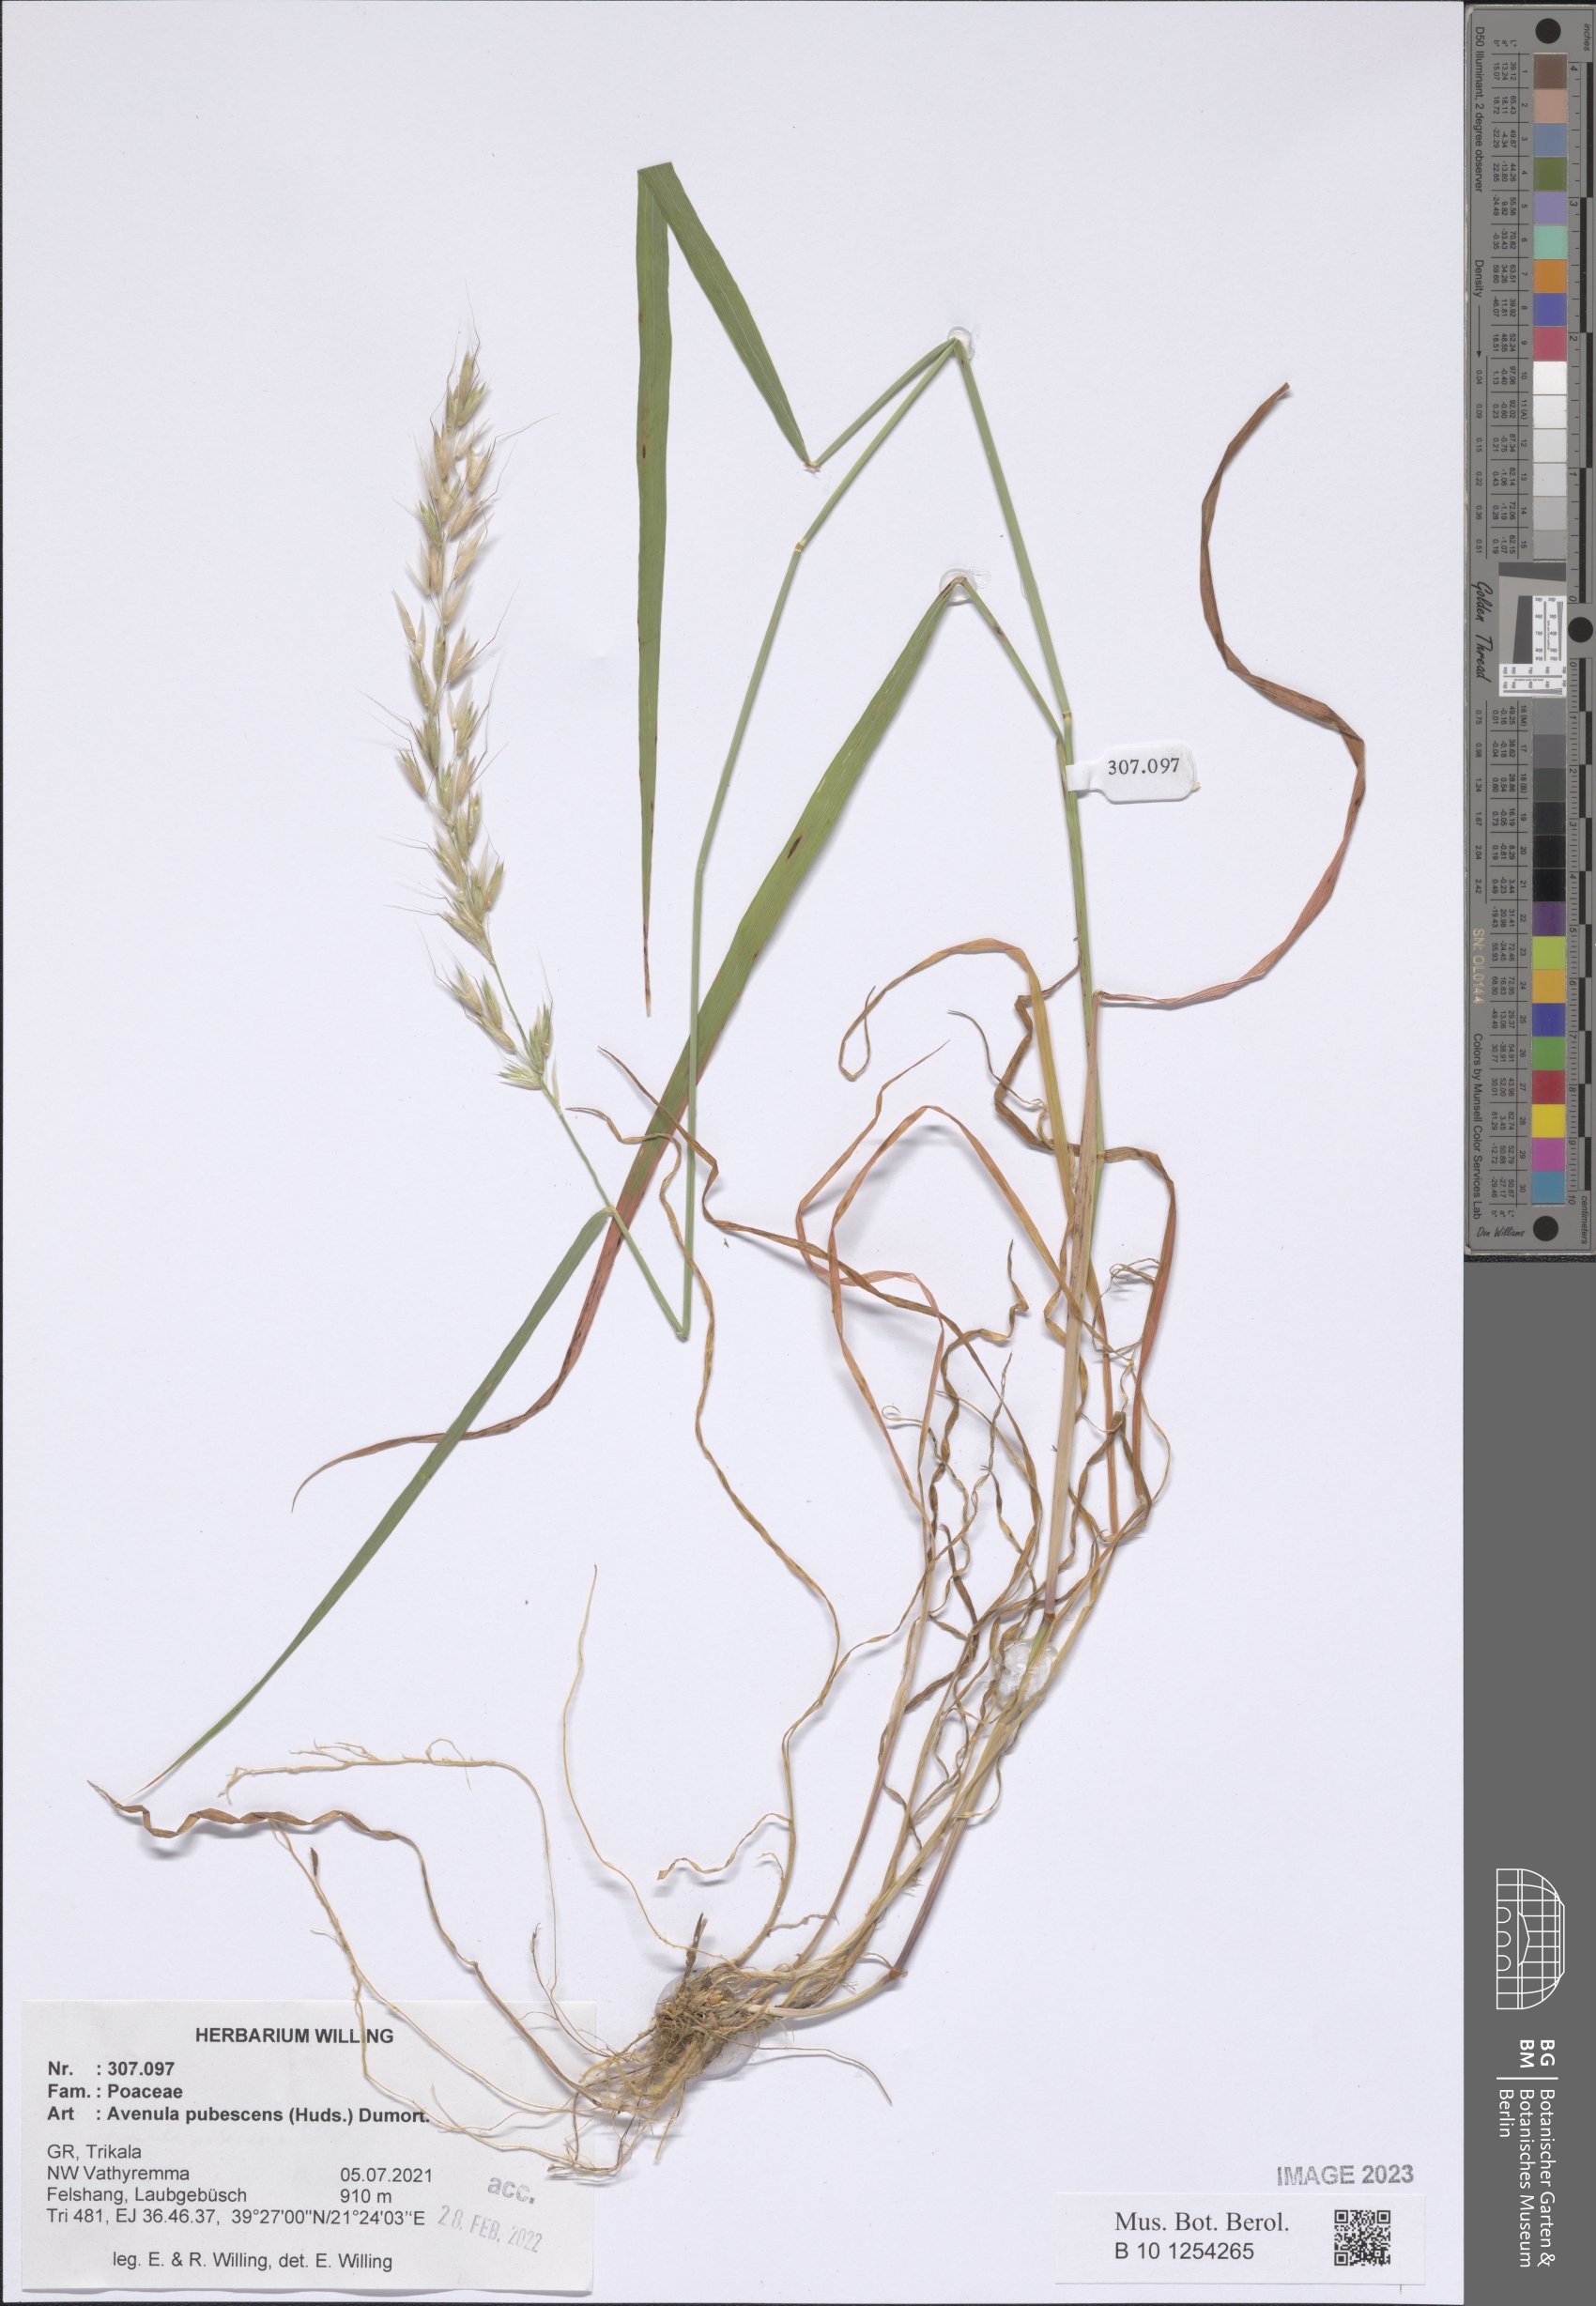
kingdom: Plantae
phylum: Tracheophyta
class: Liliopsida
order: Poales
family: Poaceae
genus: Avenula
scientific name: Avenula pubescens
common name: Downy alpine oatgrass
